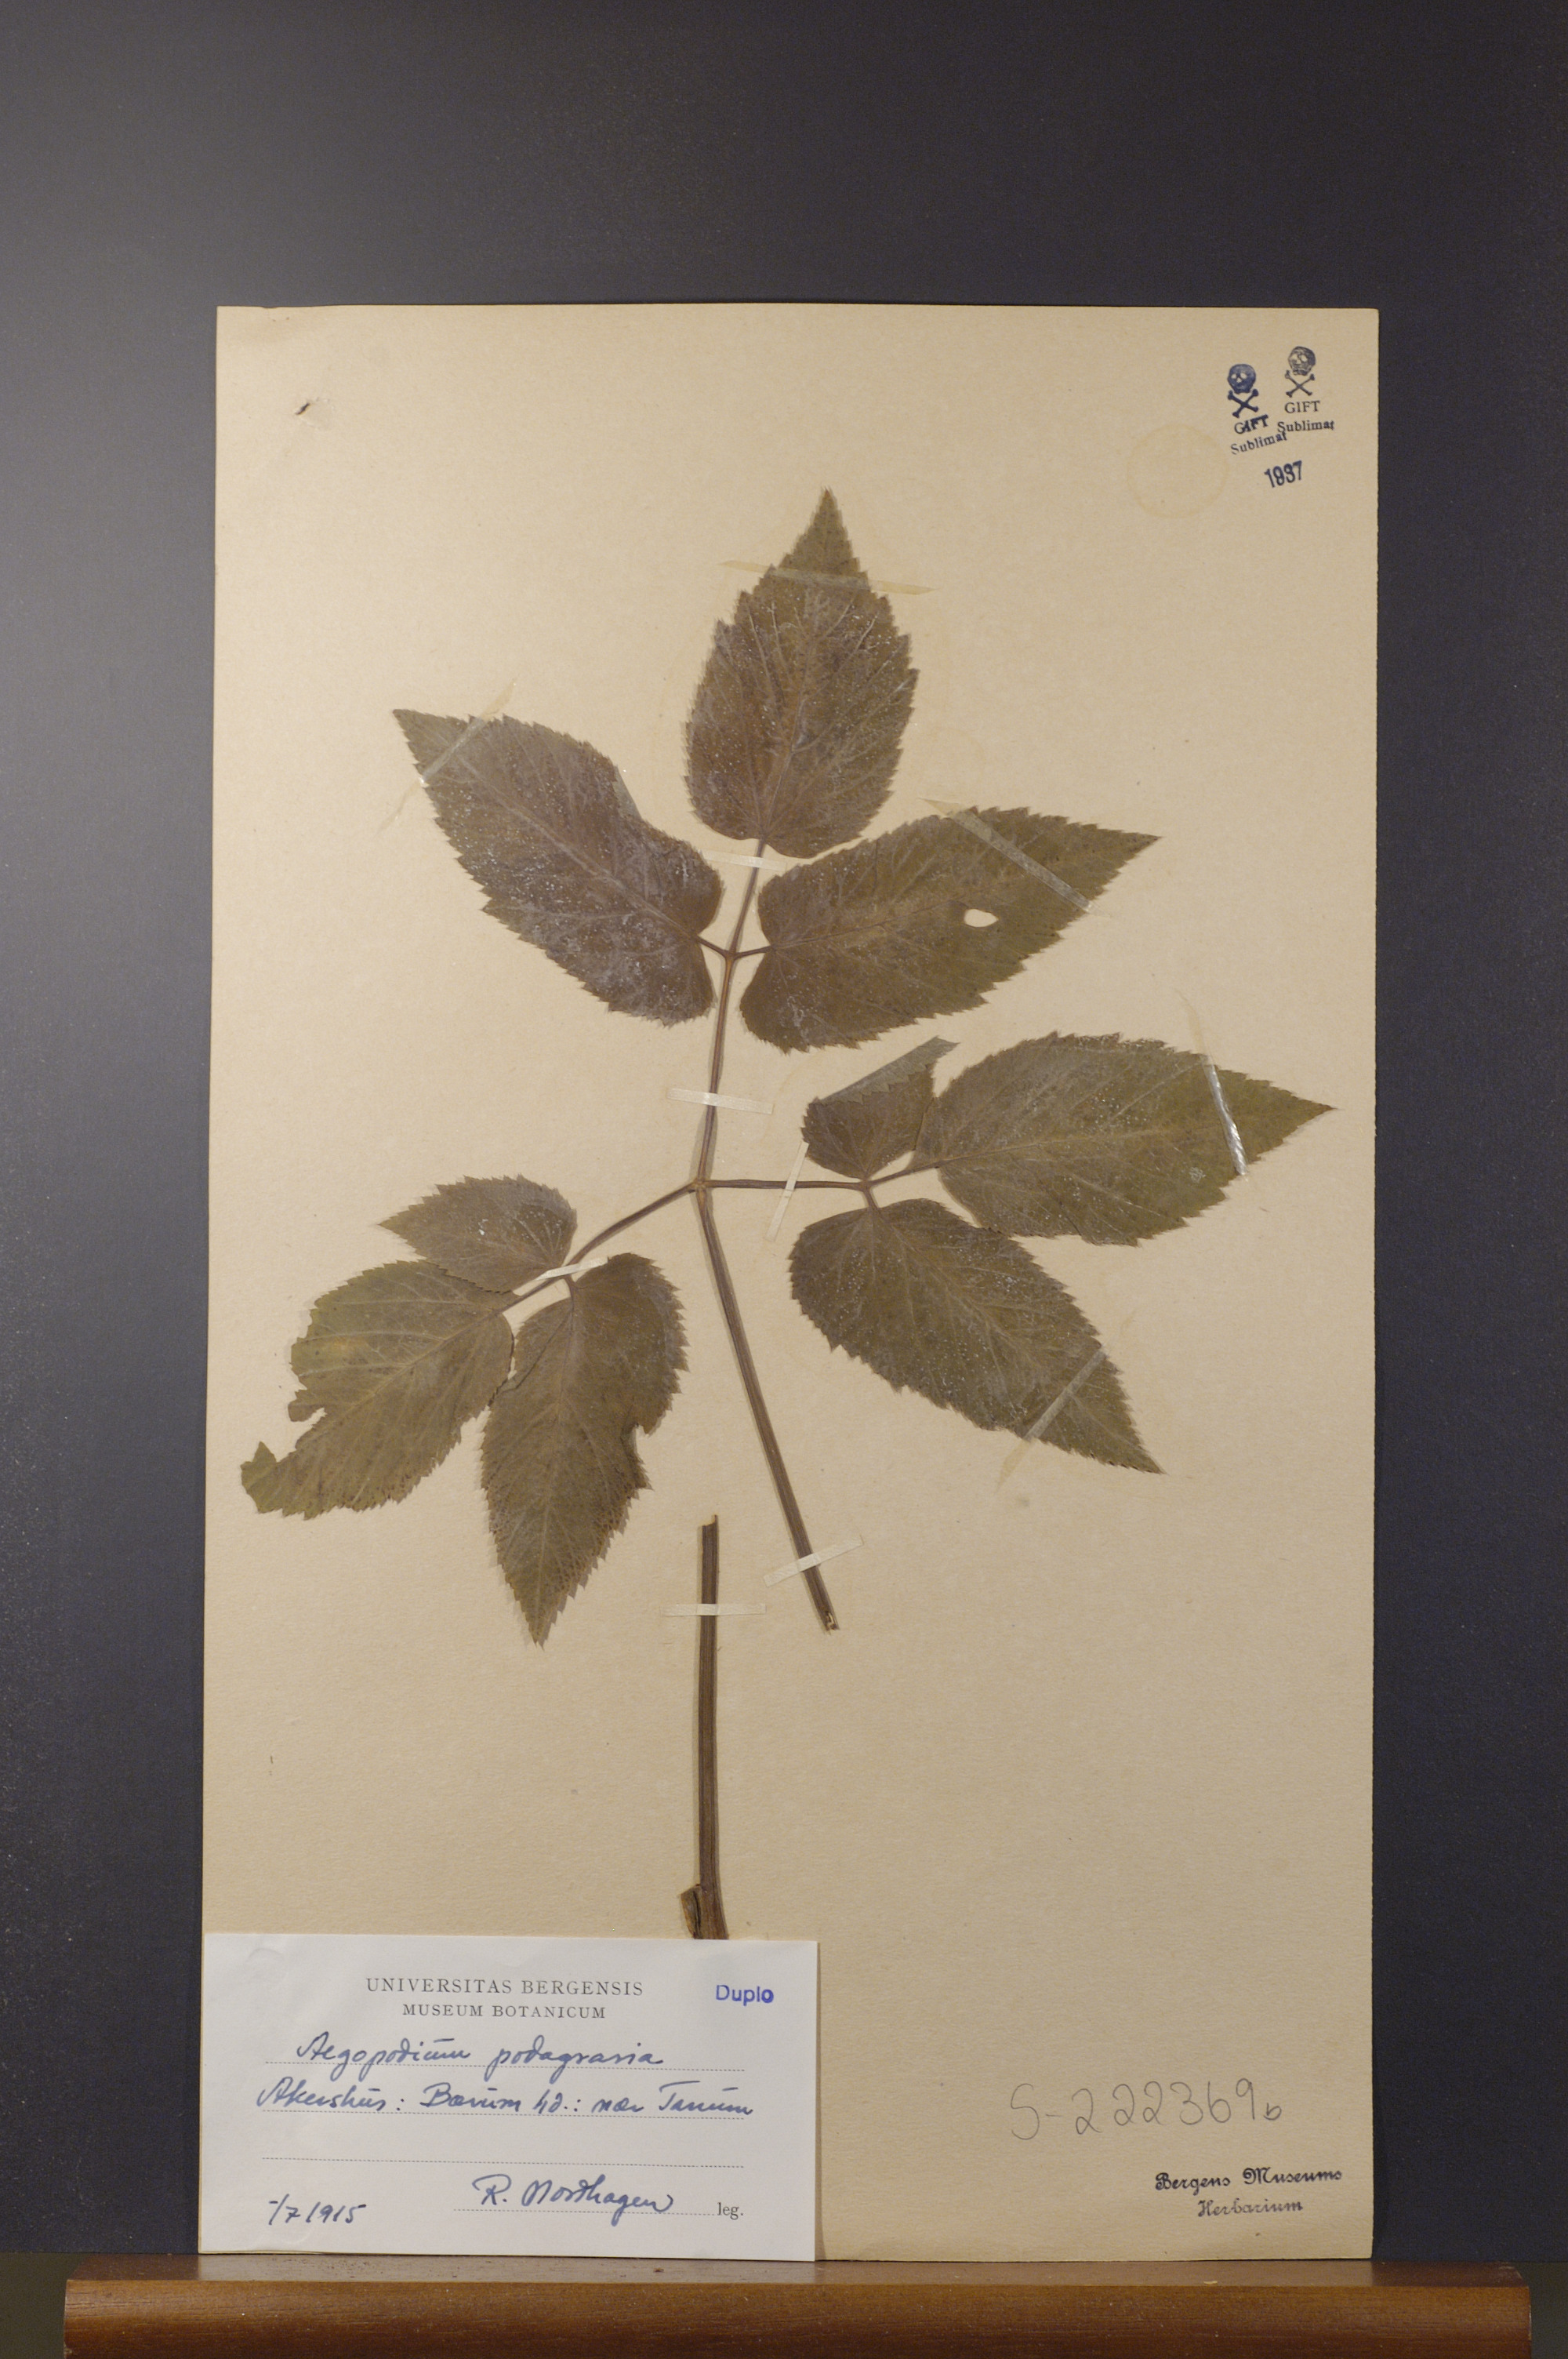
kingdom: Plantae
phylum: Tracheophyta
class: Magnoliopsida
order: Apiales
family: Apiaceae
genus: Aegopodium
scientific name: Aegopodium podagraria
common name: Ground-elder
